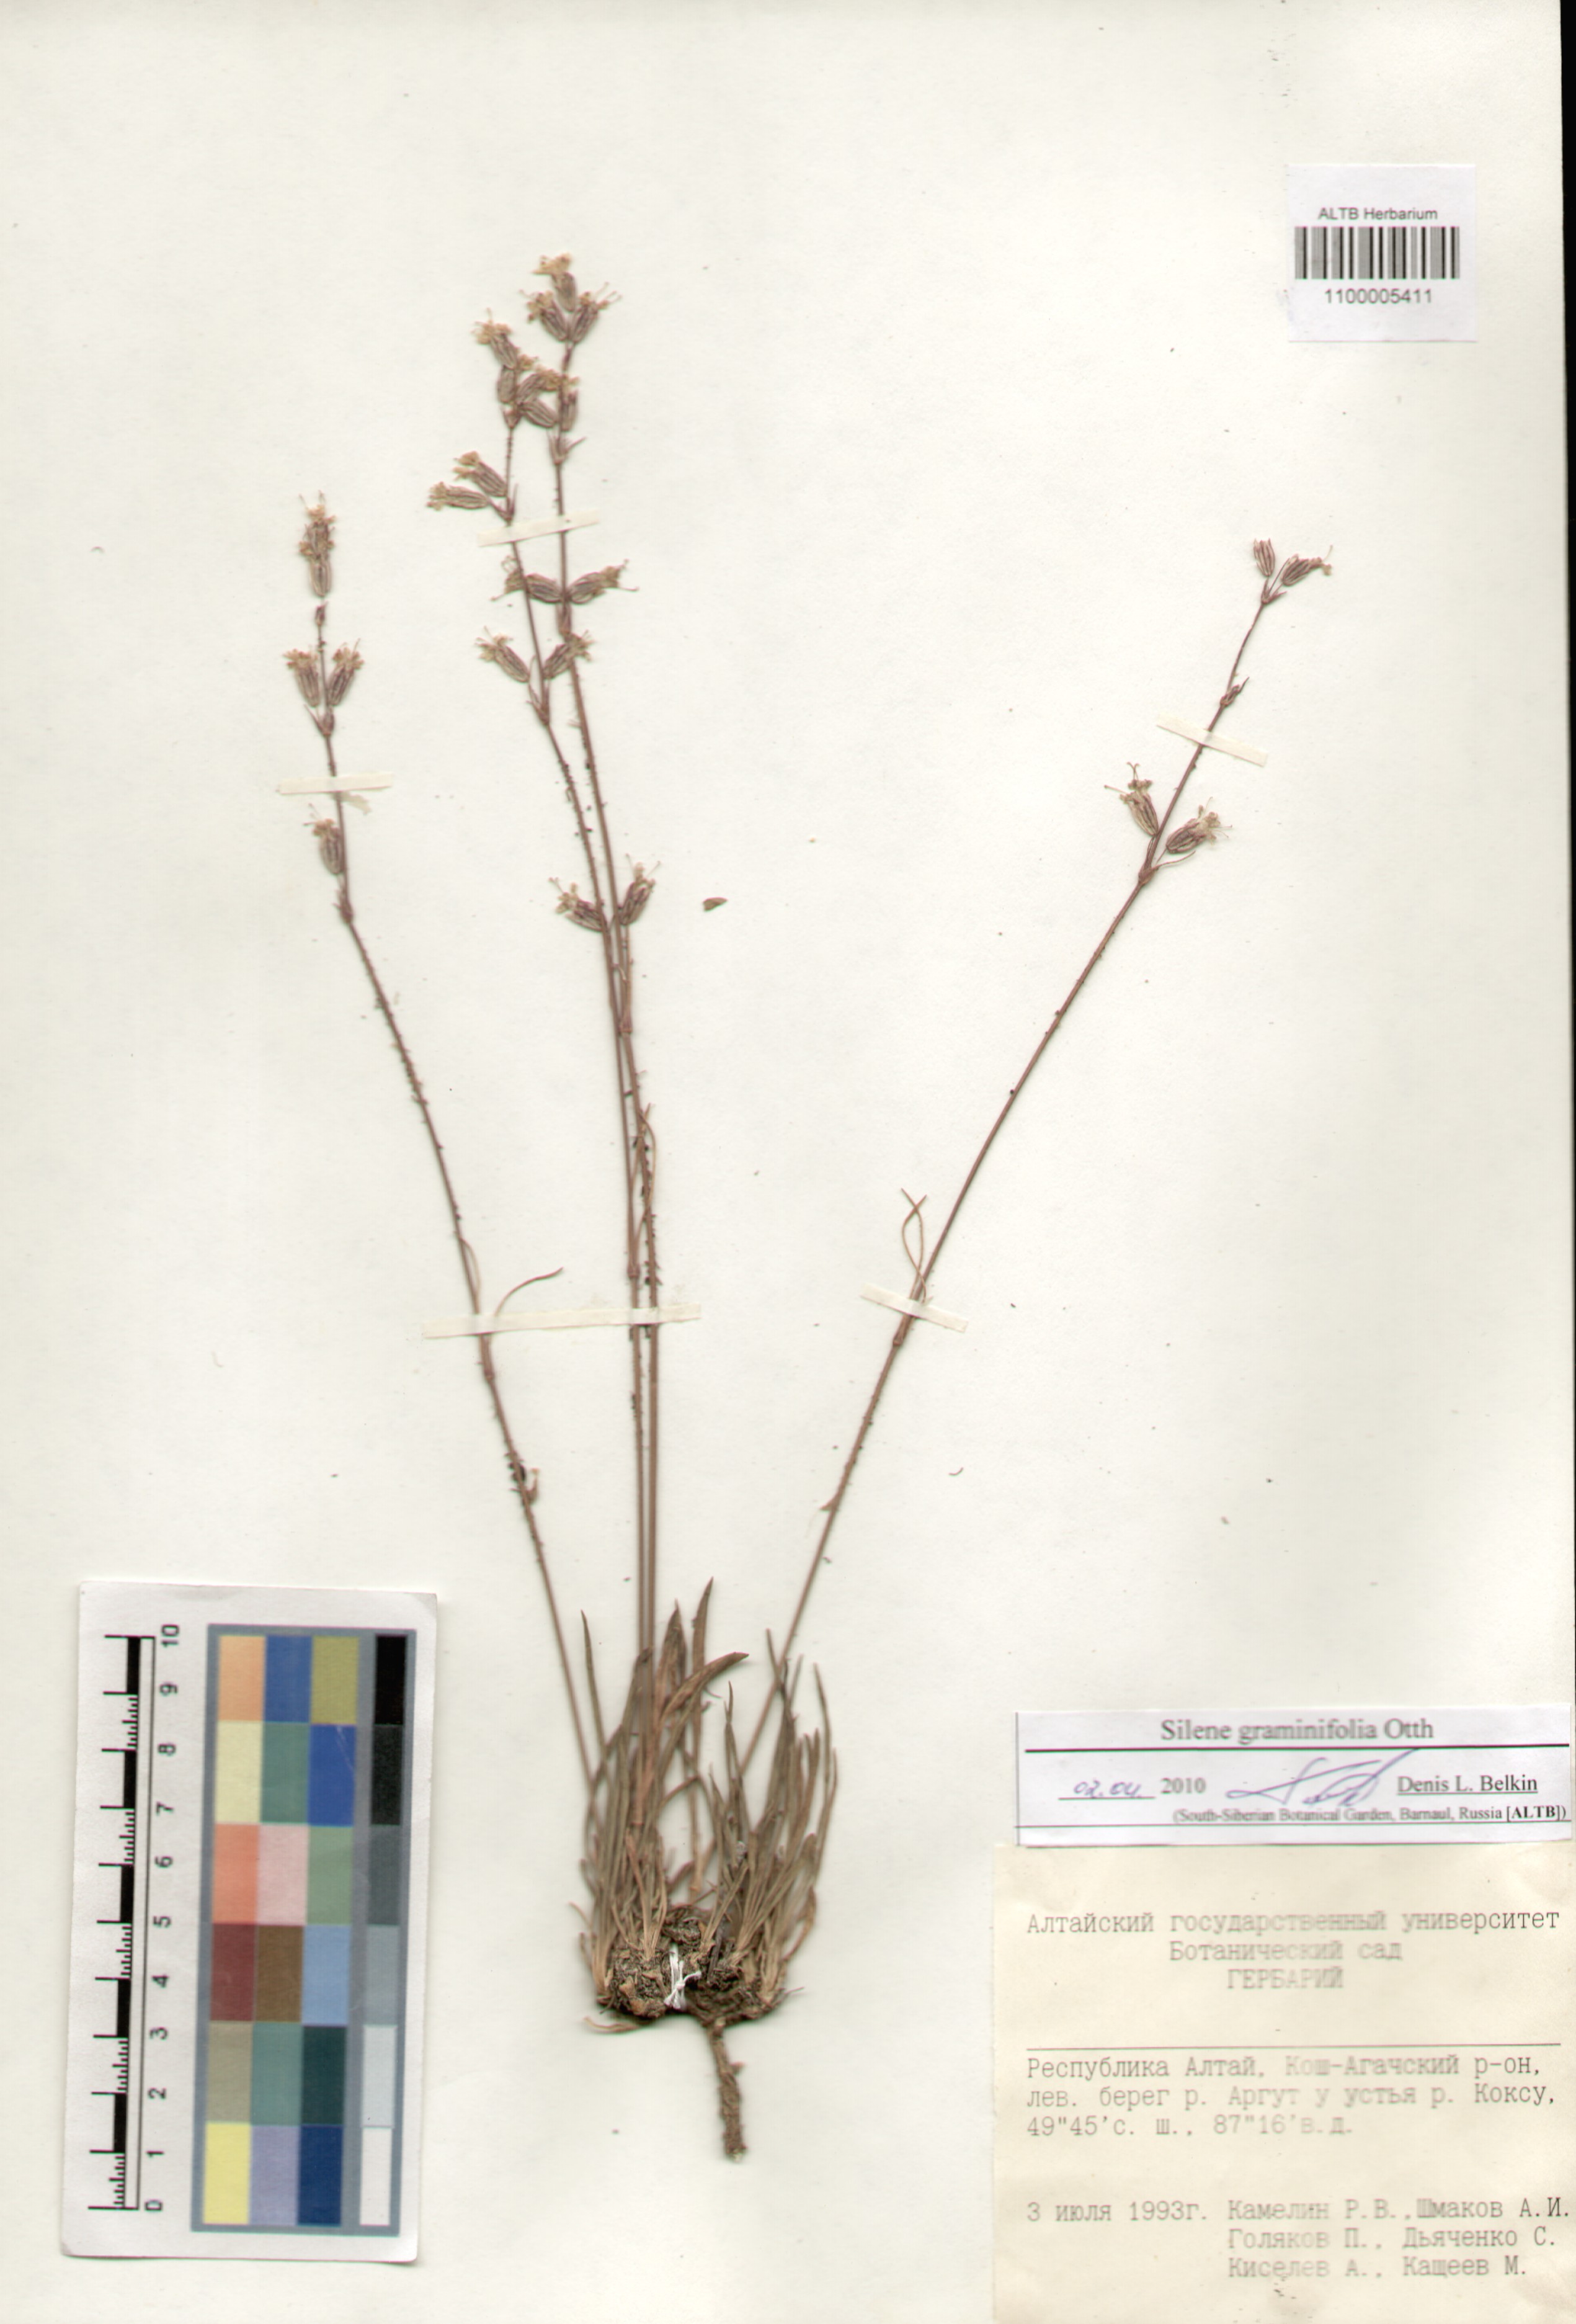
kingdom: Plantae
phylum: Tracheophyta
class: Magnoliopsida
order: Caryophyllales
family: Caryophyllaceae
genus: Silene
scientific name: Silene graminifolia
